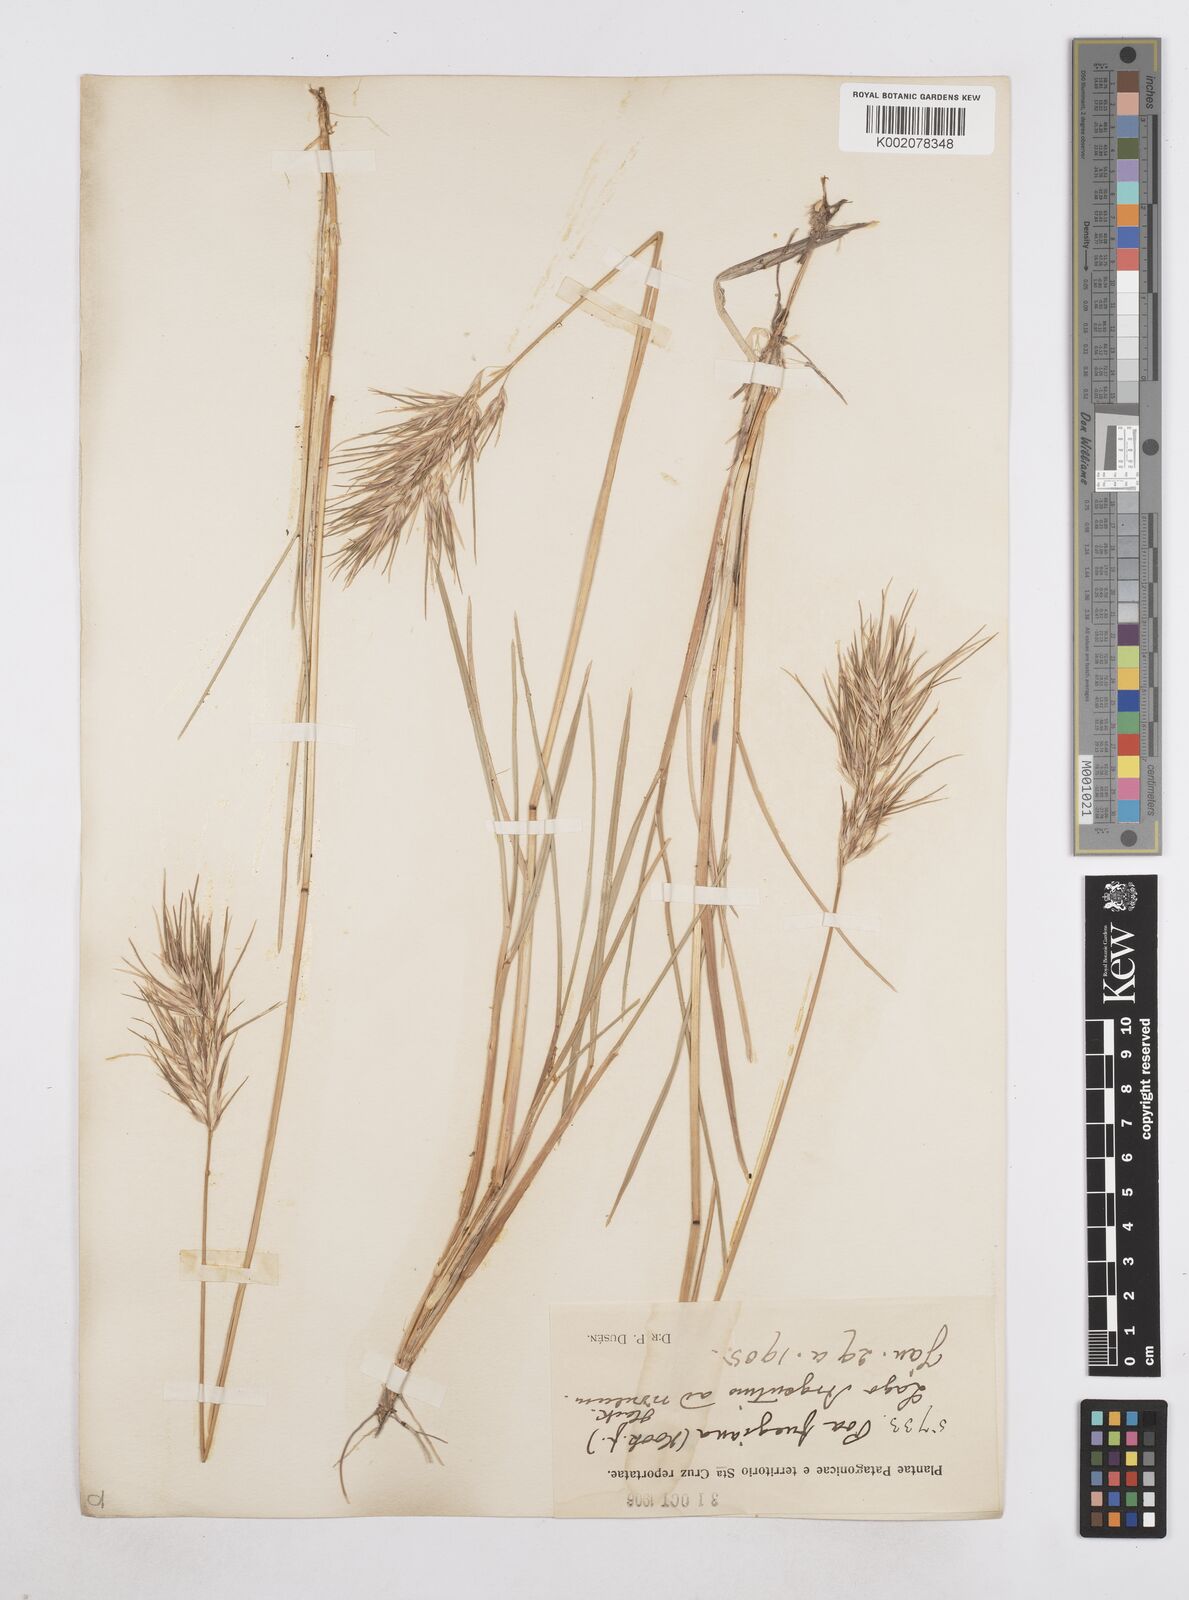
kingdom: Plantae
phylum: Tracheophyta
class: Liliopsida
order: Poales
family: Poaceae
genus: Poa
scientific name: Poa alopecurus
